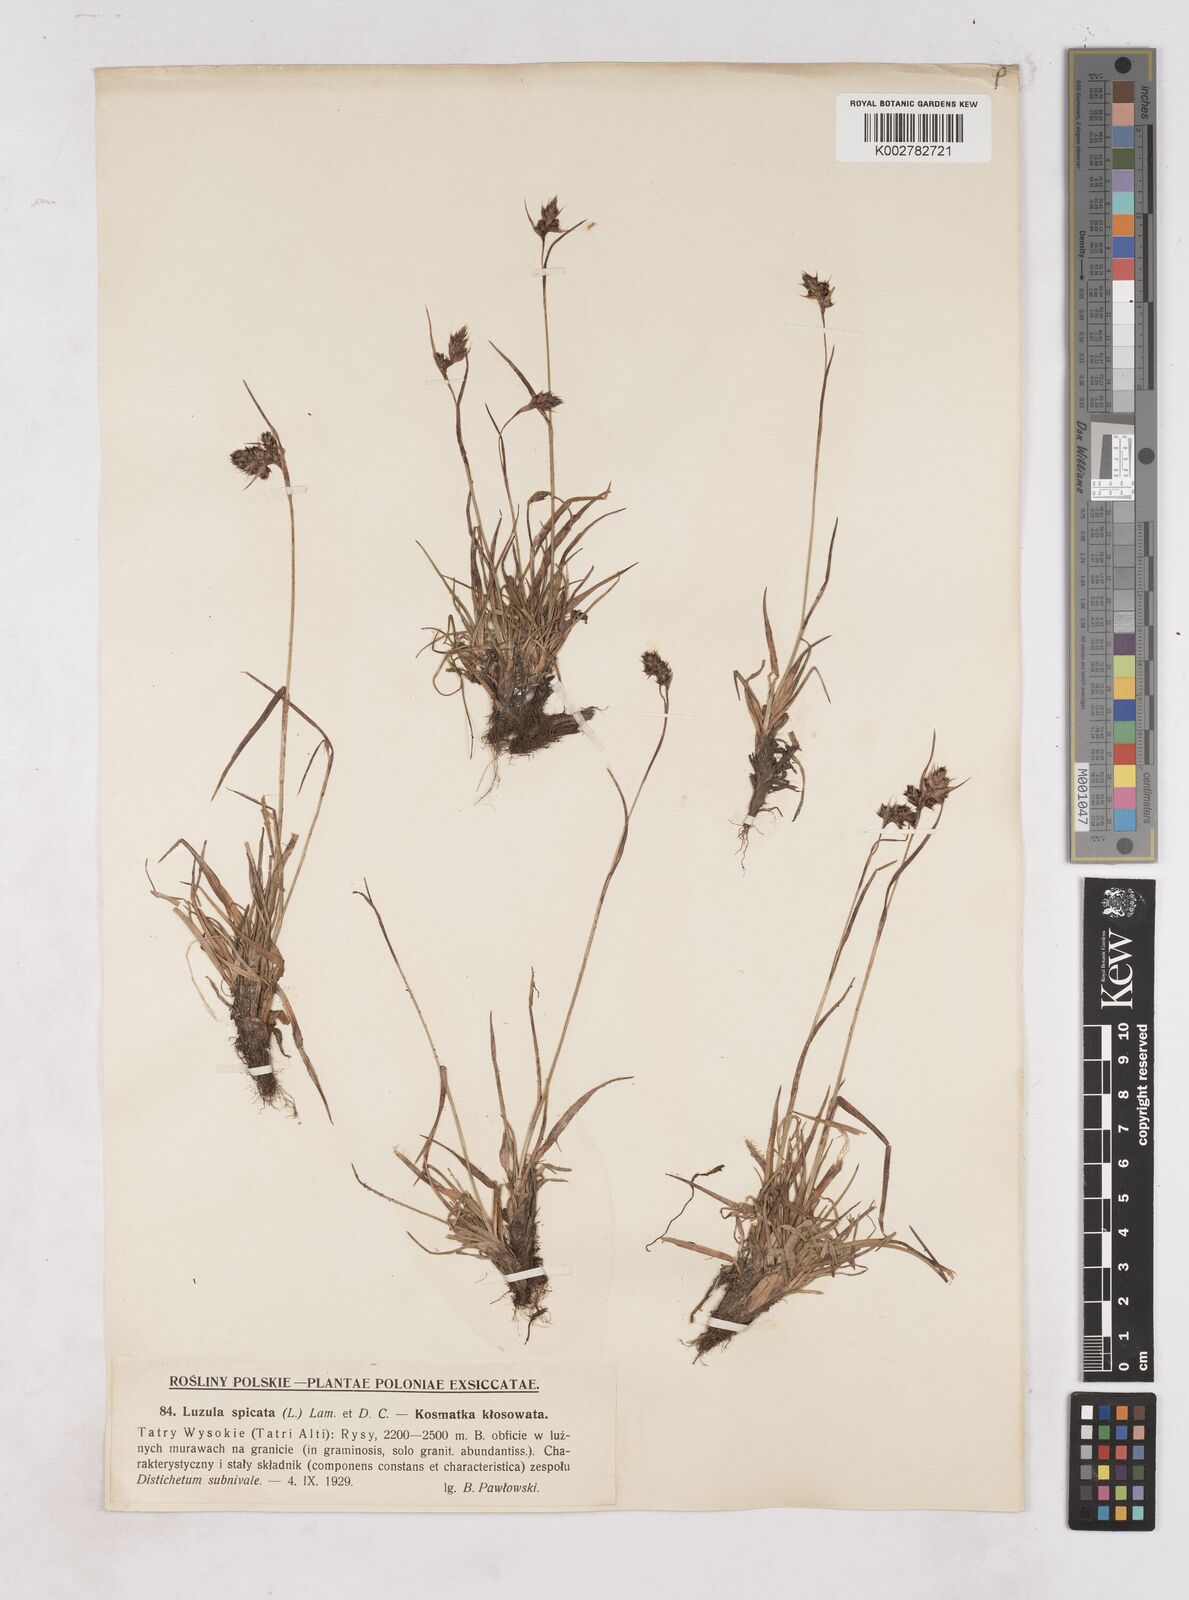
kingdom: Plantae
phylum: Tracheophyta
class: Liliopsida
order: Poales
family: Juncaceae
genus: Luzula
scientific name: Luzula spicata
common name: Spiked wood-rush
